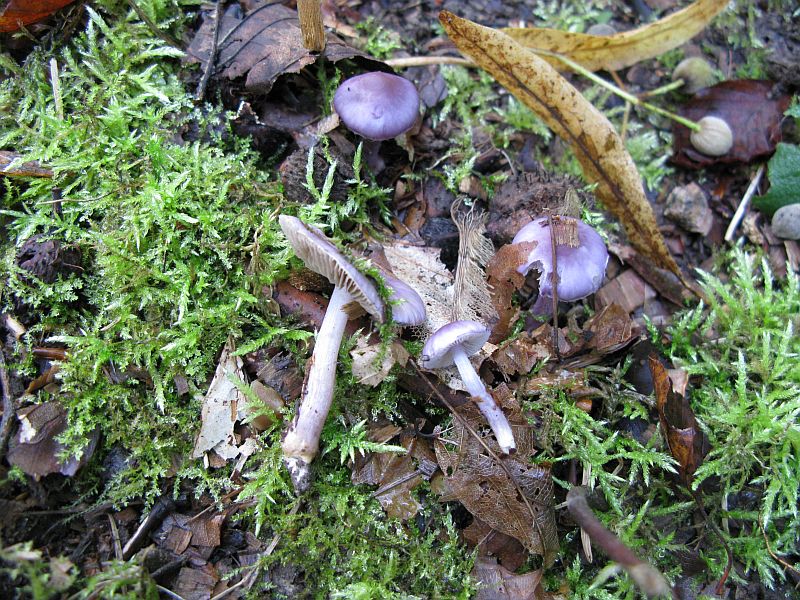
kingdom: Fungi
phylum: Basidiomycota
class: Agaricomycetes
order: Agaricales
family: Inocybaceae
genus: Inocybe
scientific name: Inocybe geophylla
